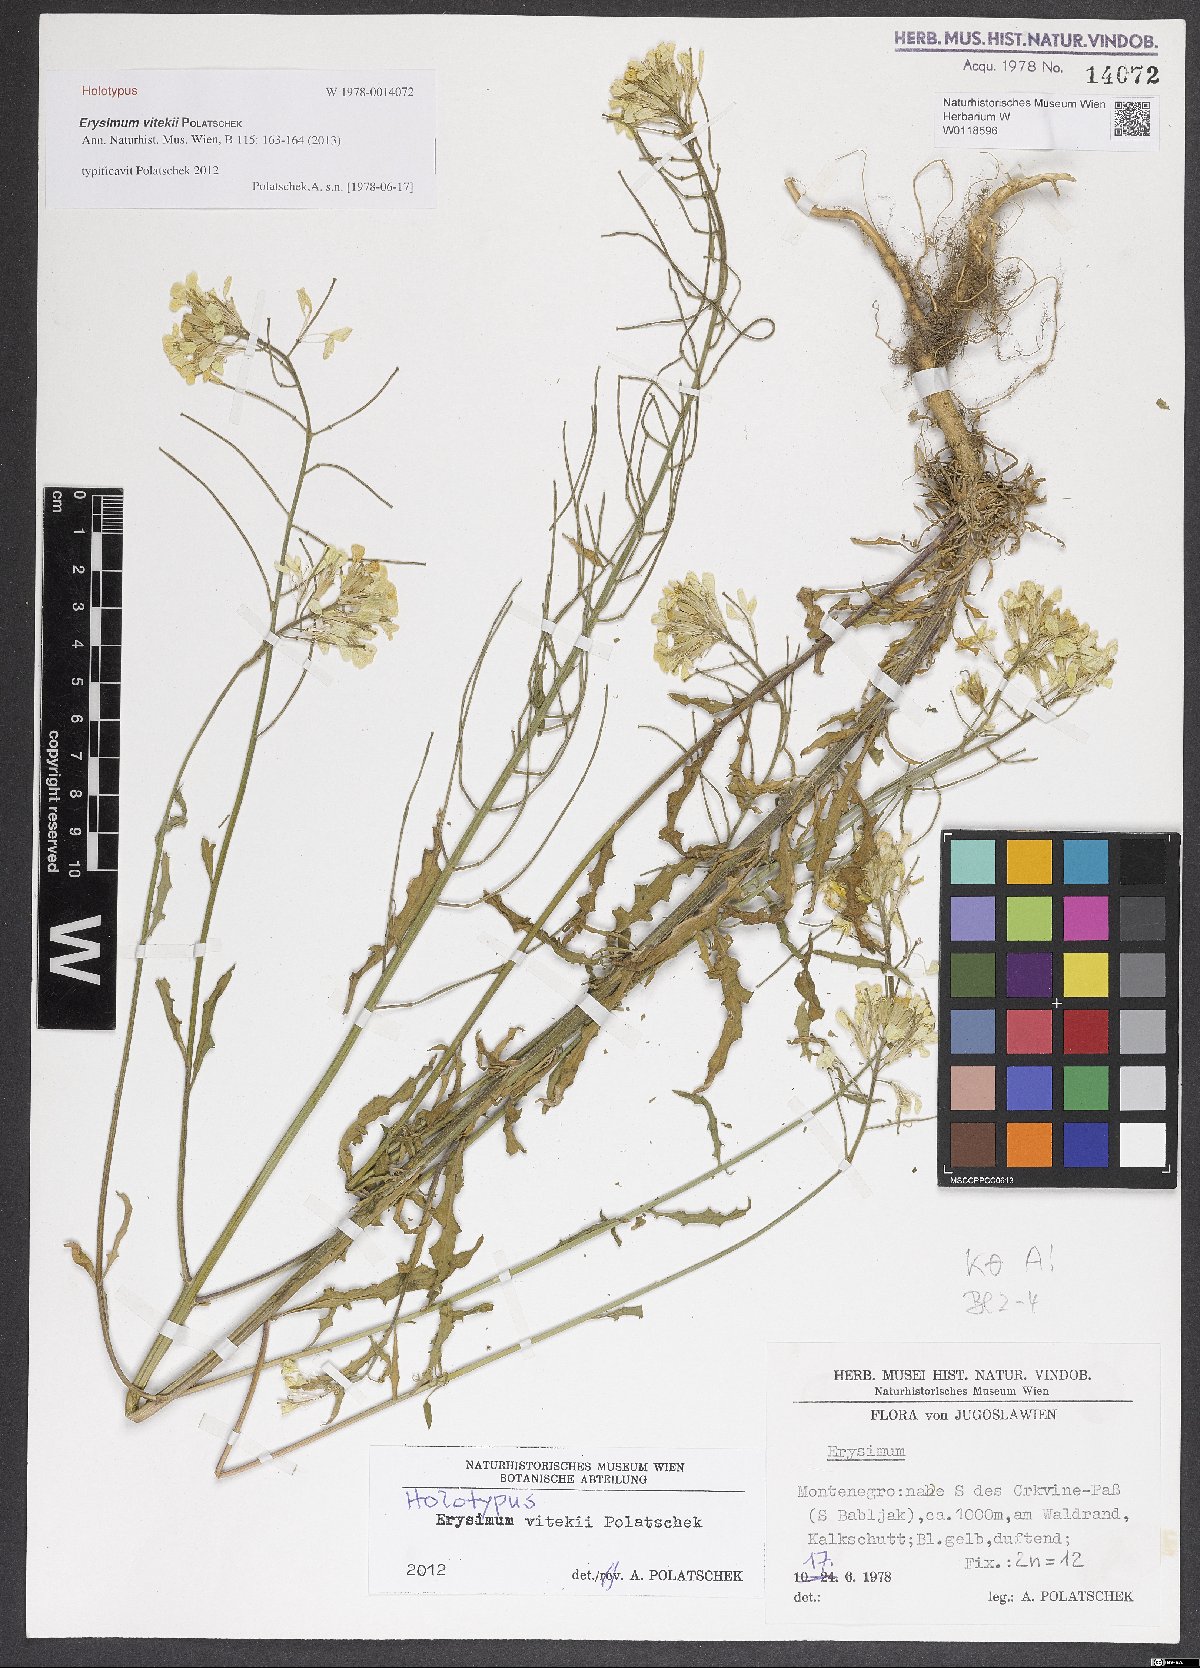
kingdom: Plantae
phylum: Tracheophyta
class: Magnoliopsida
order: Brassicales
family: Brassicaceae
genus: Erysimum
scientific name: Erysimum vitekii
